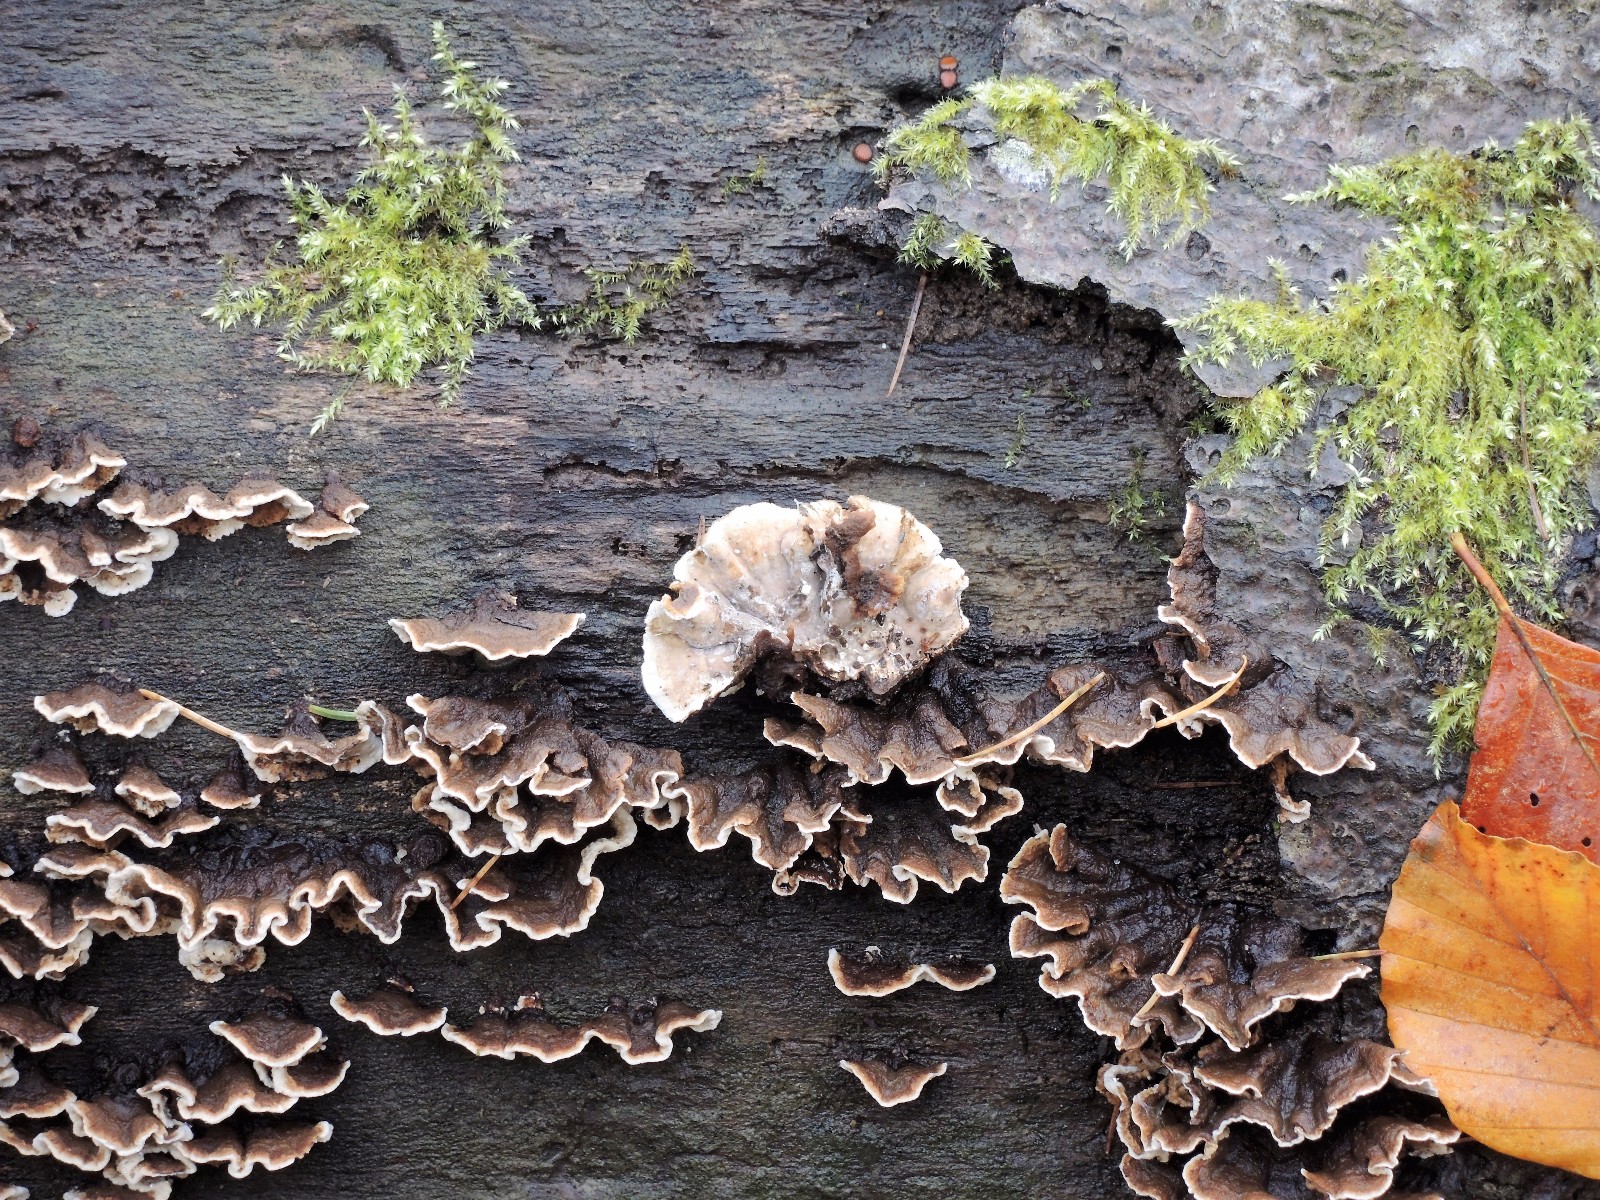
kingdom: Fungi
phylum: Basidiomycota
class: Agaricomycetes
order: Russulales
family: Hericiaceae
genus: Laxitextum
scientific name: Laxitextum bicolor
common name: tvefarvet filtskind
